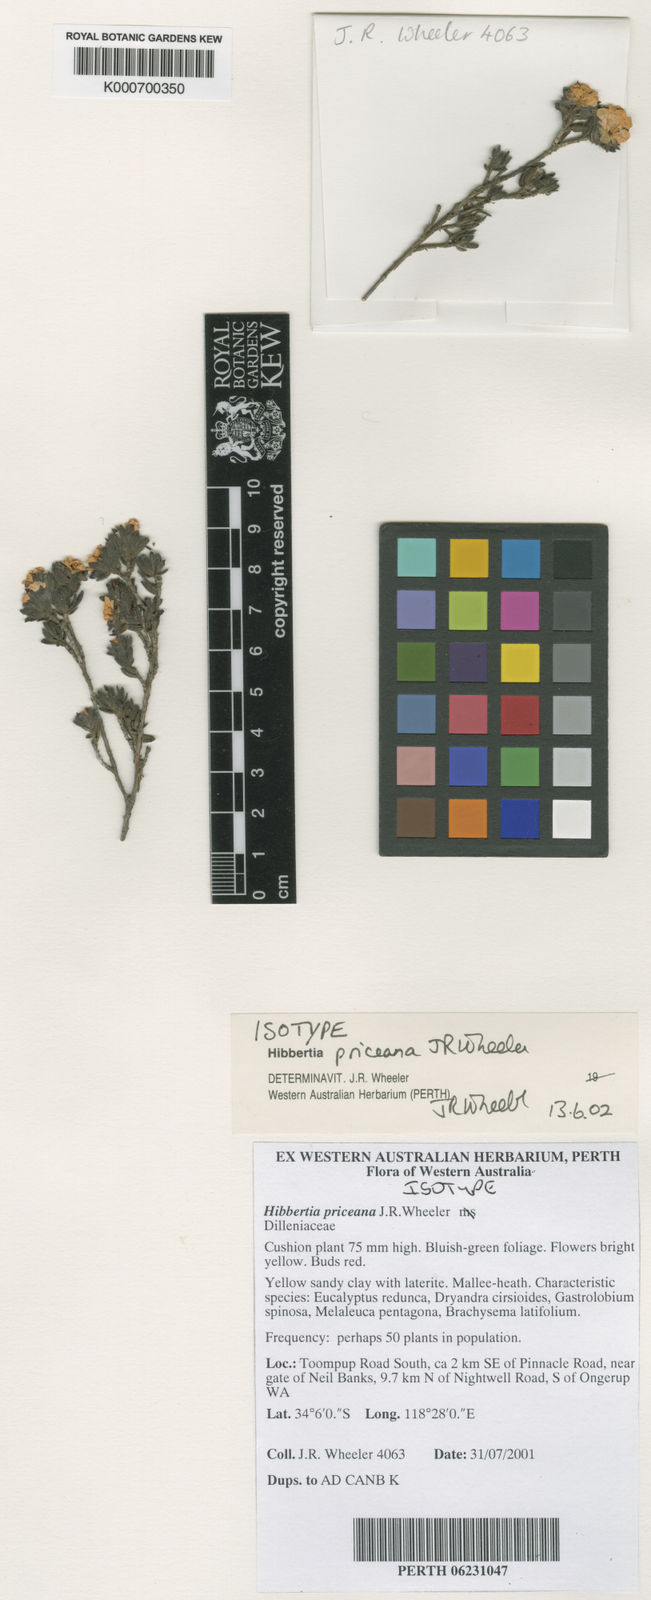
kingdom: Plantae
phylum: Tracheophyta
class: Magnoliopsida
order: Dilleniales
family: Dilleniaceae
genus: Hibbertia
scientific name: Hibbertia priceana
